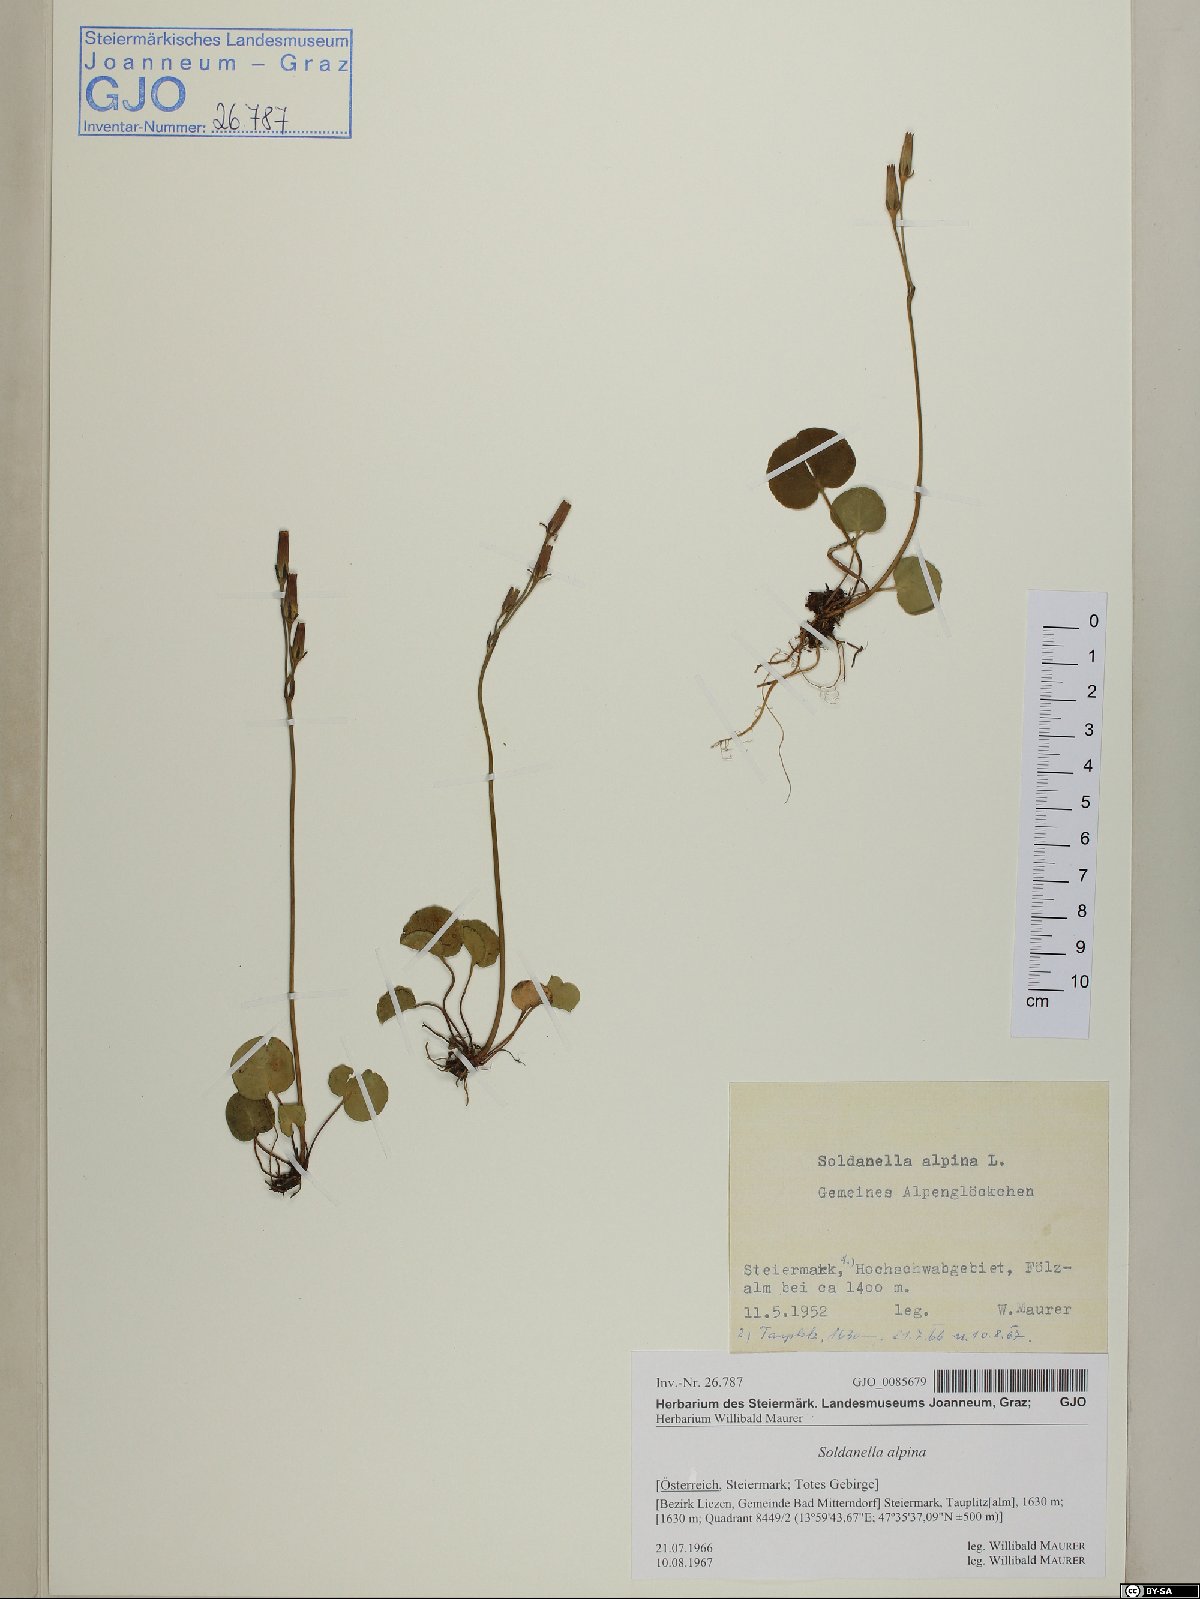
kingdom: Plantae
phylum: Tracheophyta
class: Magnoliopsida
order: Ericales
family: Primulaceae
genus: Soldanella
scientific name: Soldanella alpina
